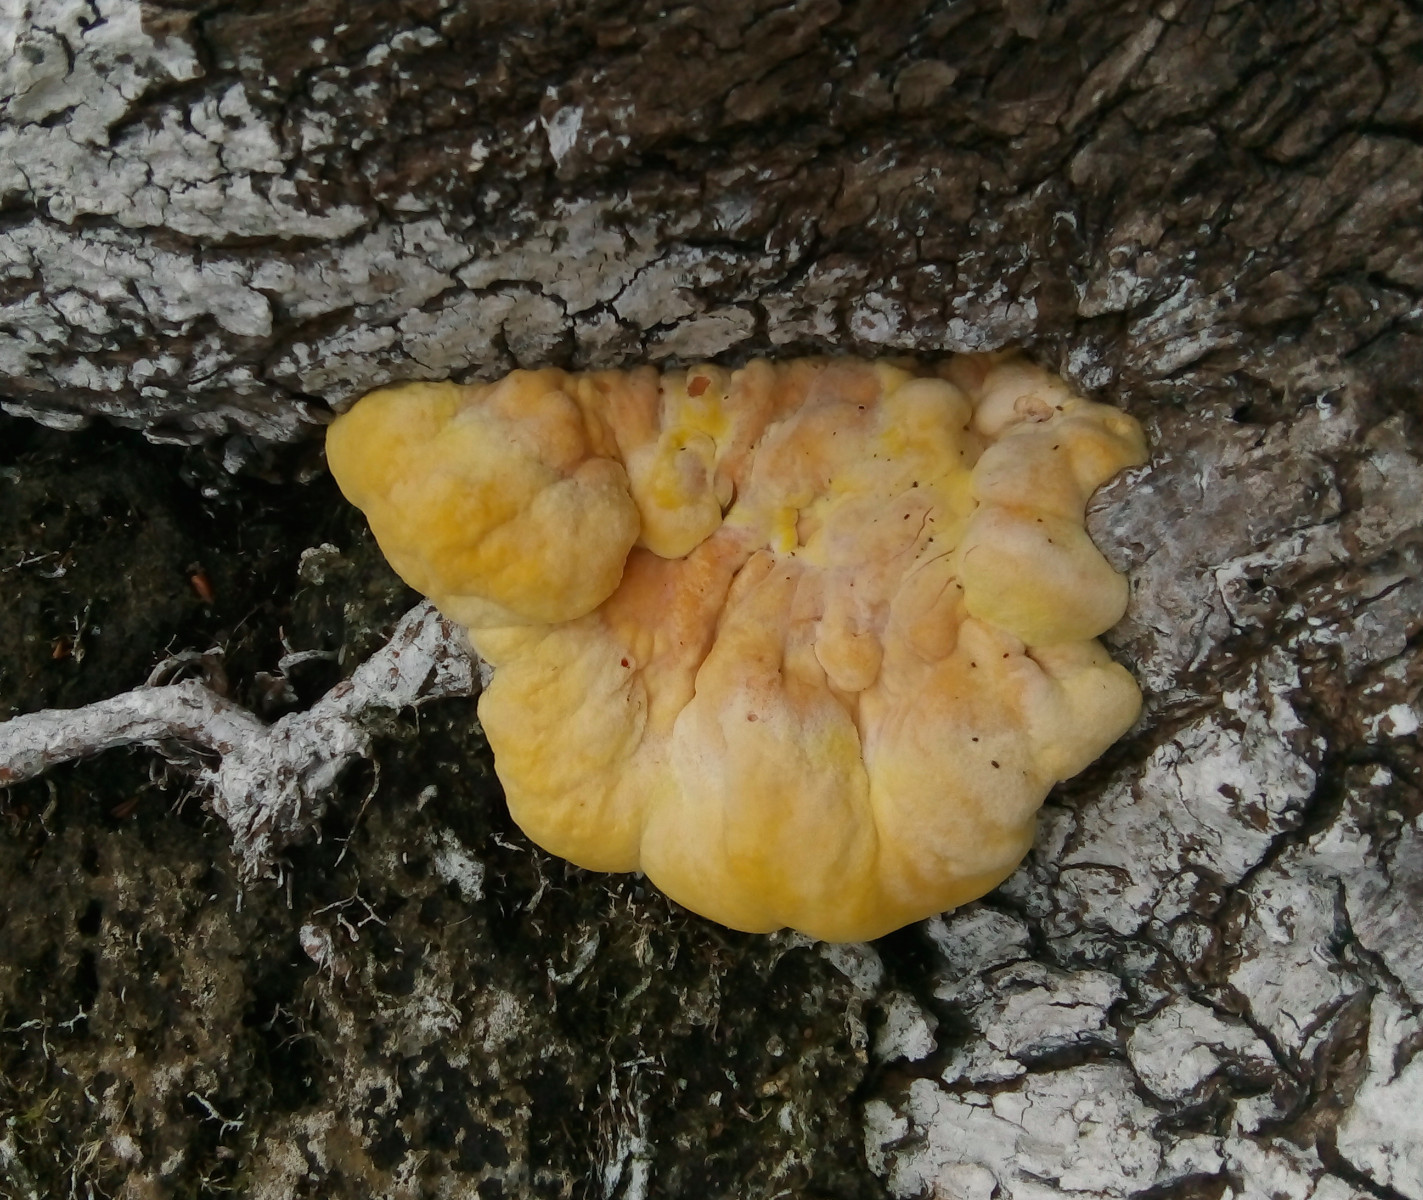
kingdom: Fungi
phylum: Basidiomycota
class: Agaricomycetes
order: Polyporales
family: Laetiporaceae
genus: Laetiporus
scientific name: Laetiporus sulphureus
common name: svovlporesvamp
